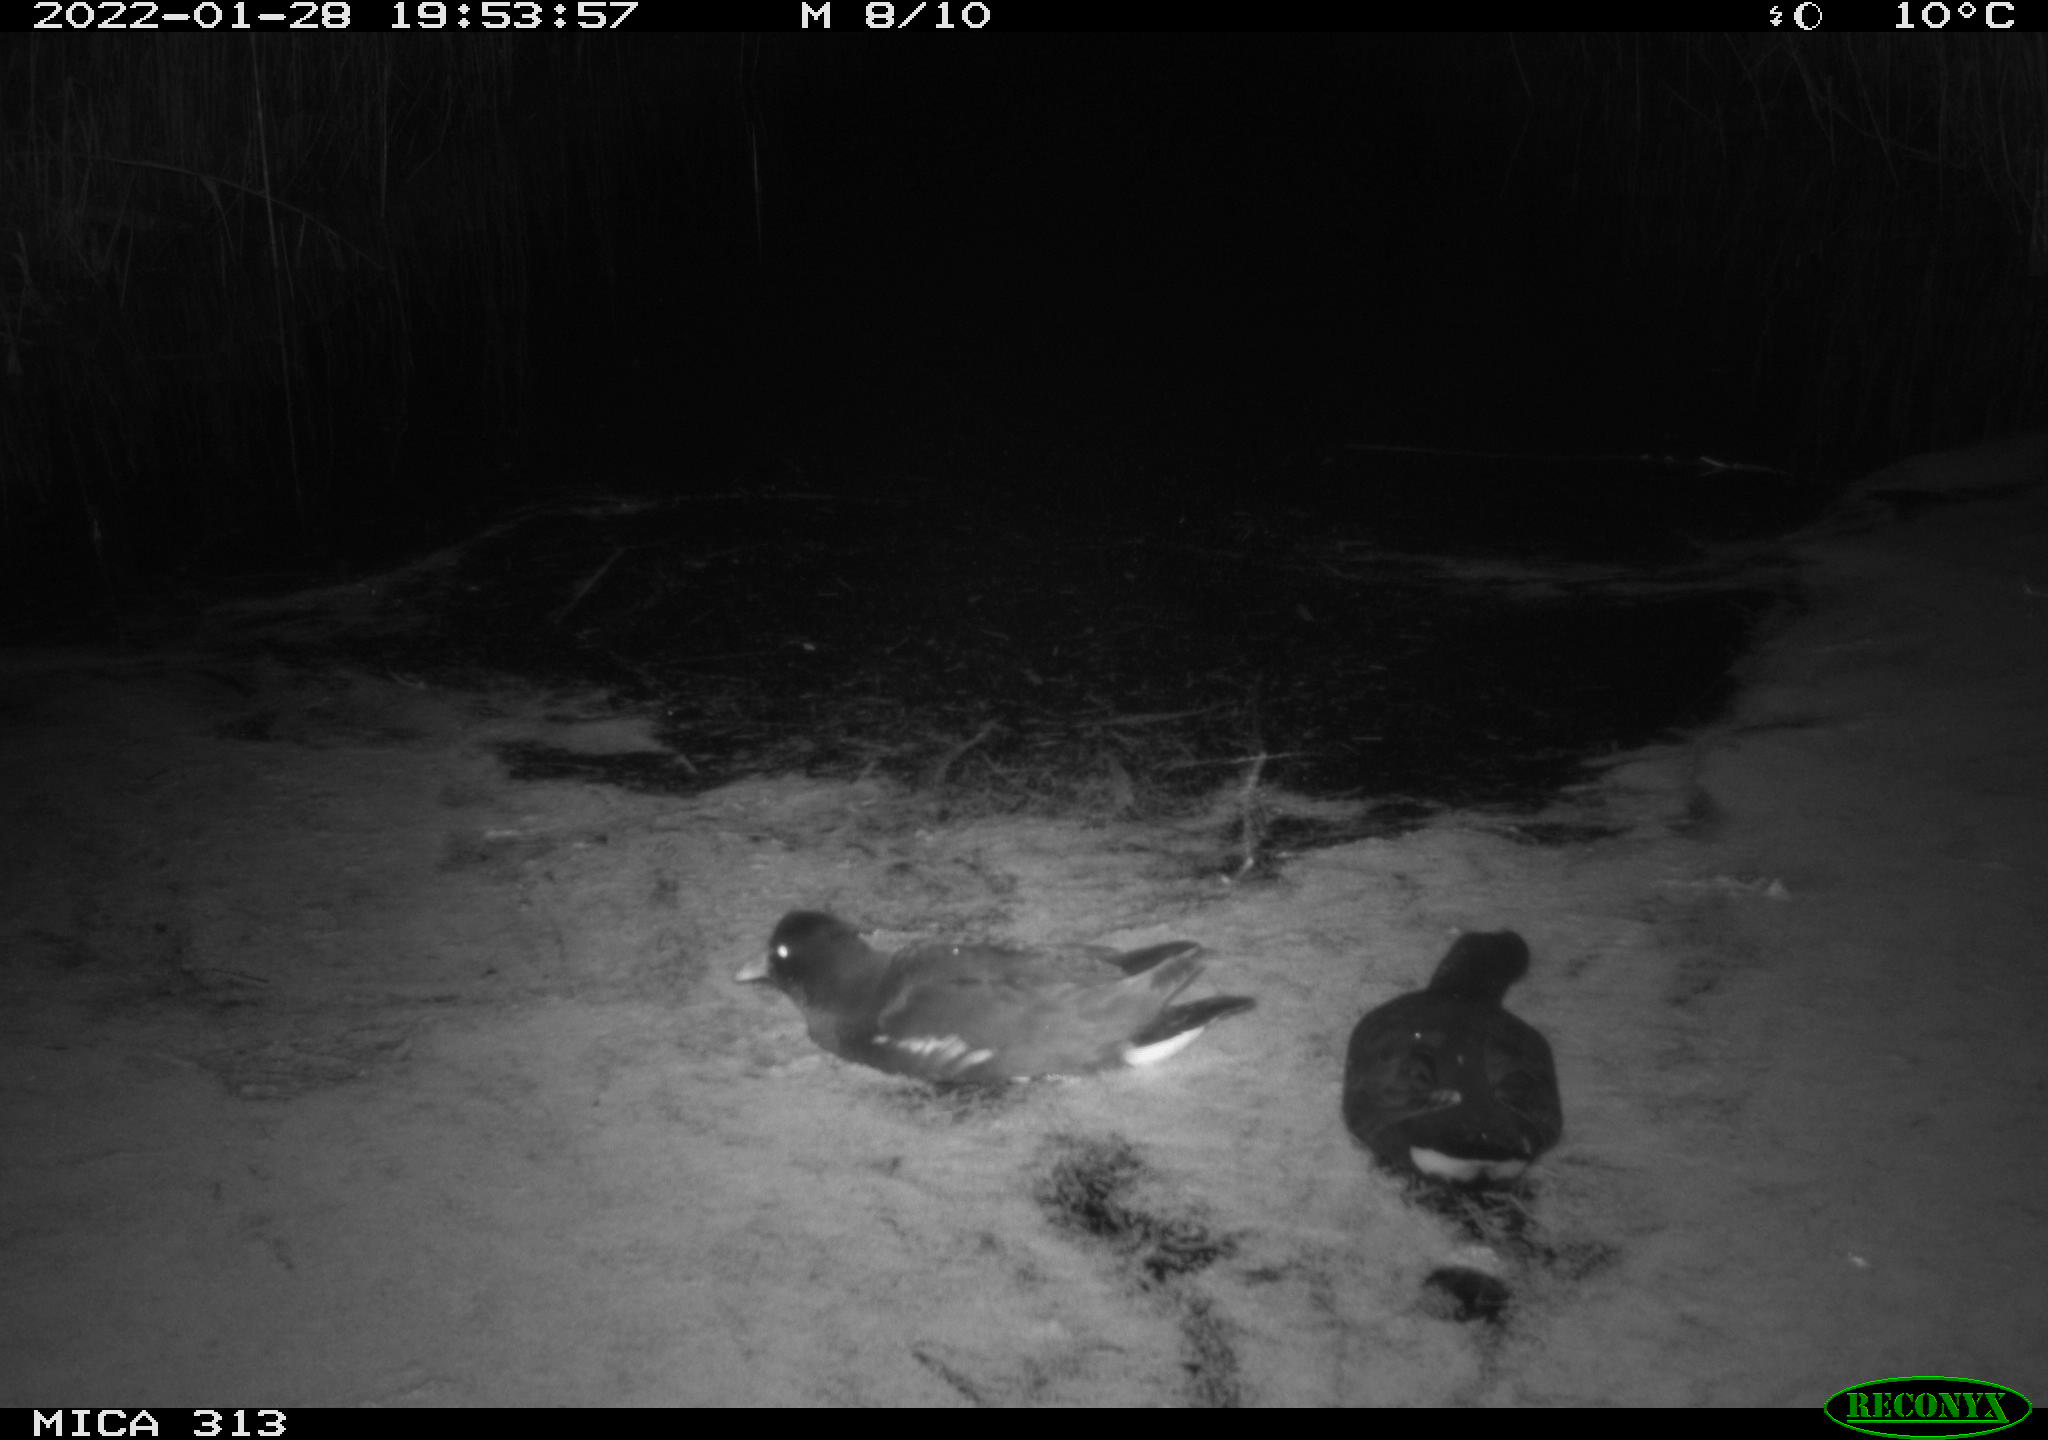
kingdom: Animalia
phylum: Chordata
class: Aves
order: Gruiformes
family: Rallidae
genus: Gallinula
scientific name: Gallinula chloropus
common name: Common moorhen
